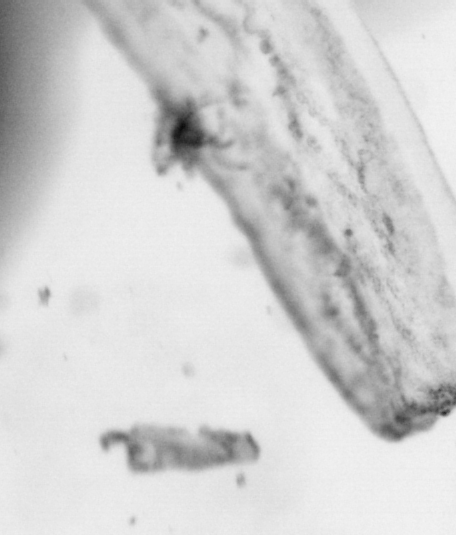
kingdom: Animalia
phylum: Chordata
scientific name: Chordata
